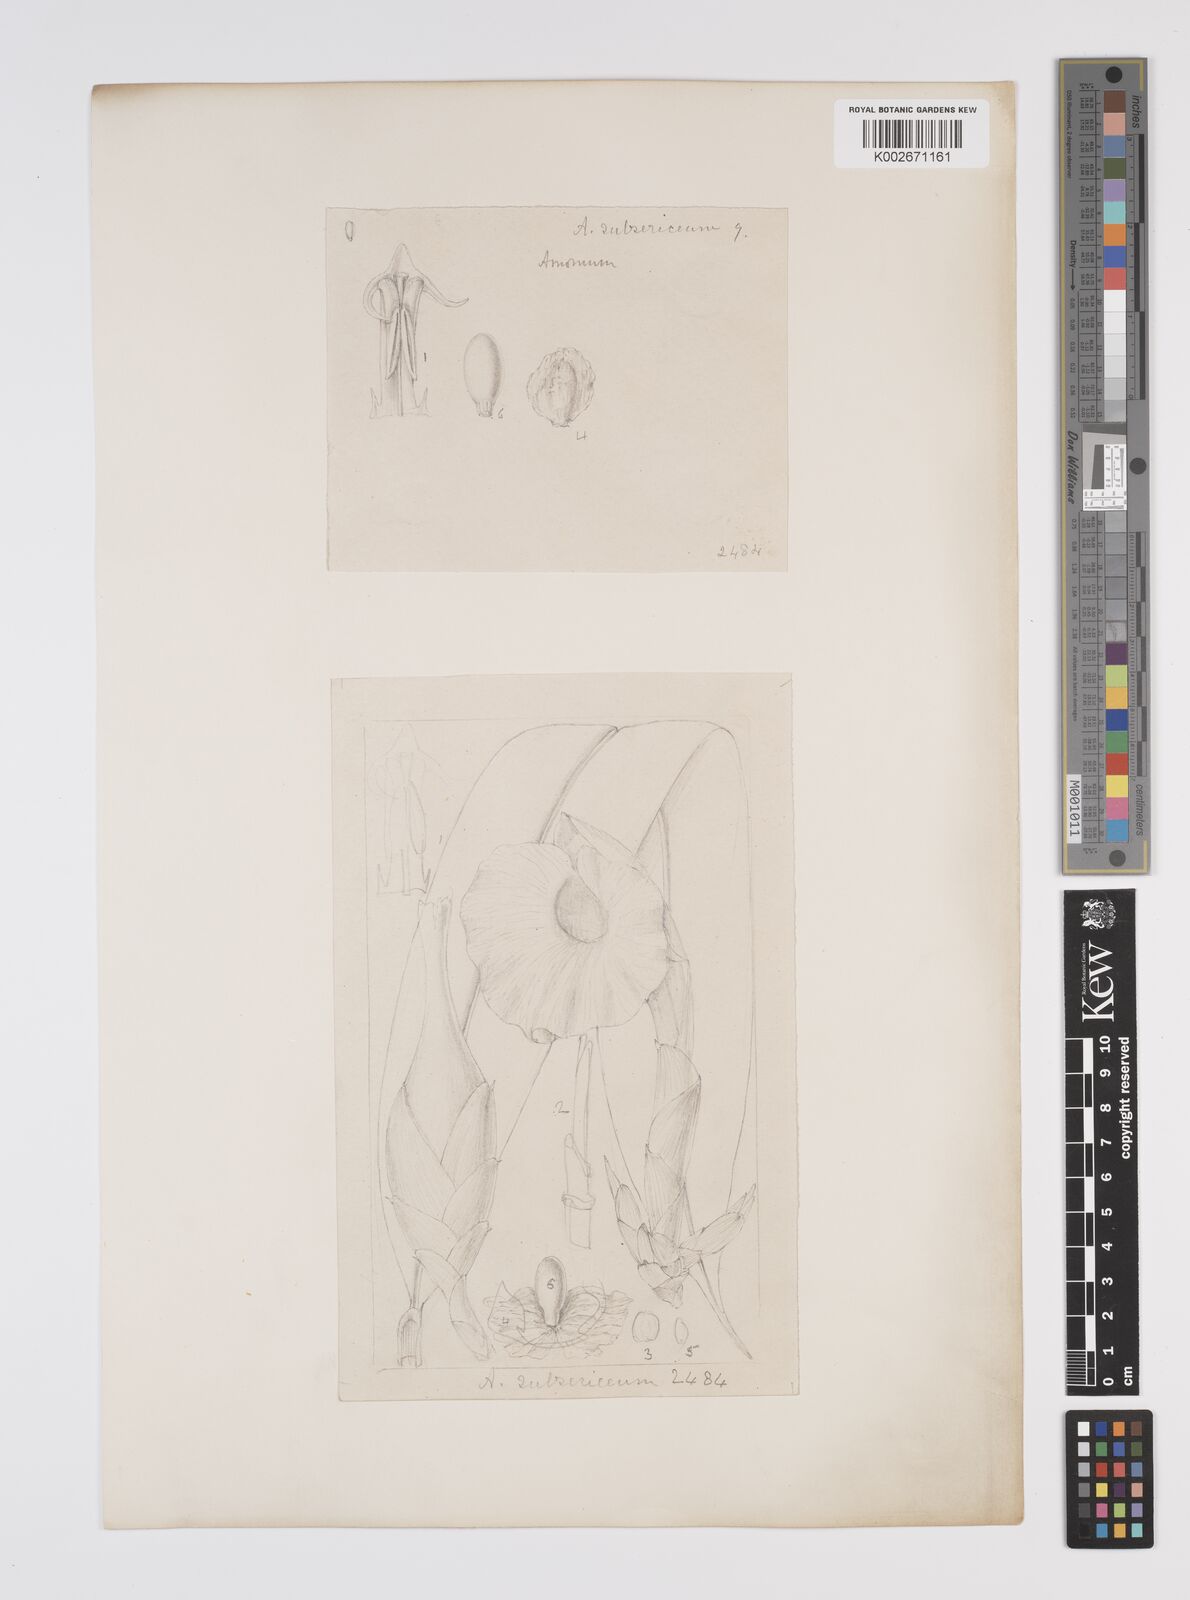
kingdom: Plantae
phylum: Tracheophyta
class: Liliopsida
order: Zingiberales
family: Zingiberaceae
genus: Aframomum
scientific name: Aframomum subsericeum
